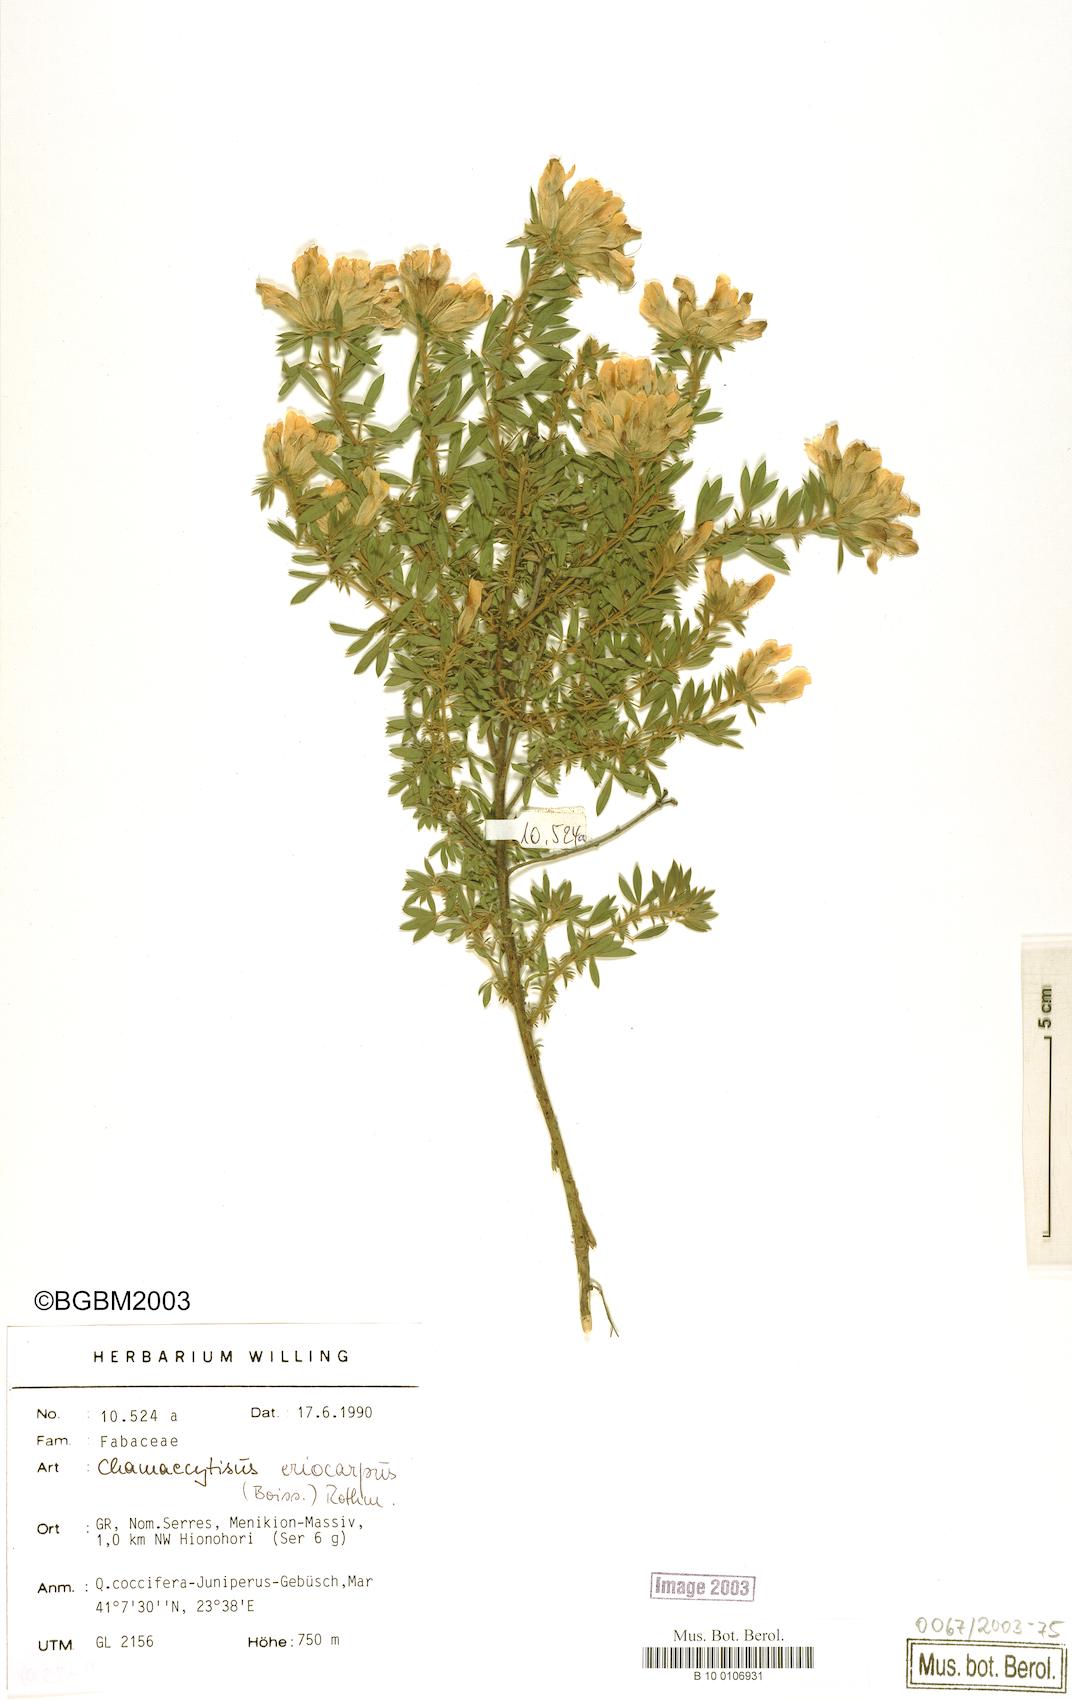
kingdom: Plantae
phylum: Tracheophyta
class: Magnoliopsida
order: Fabales
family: Fabaceae
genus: Chamaecytisus
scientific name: Chamaecytisus eriocarpus
